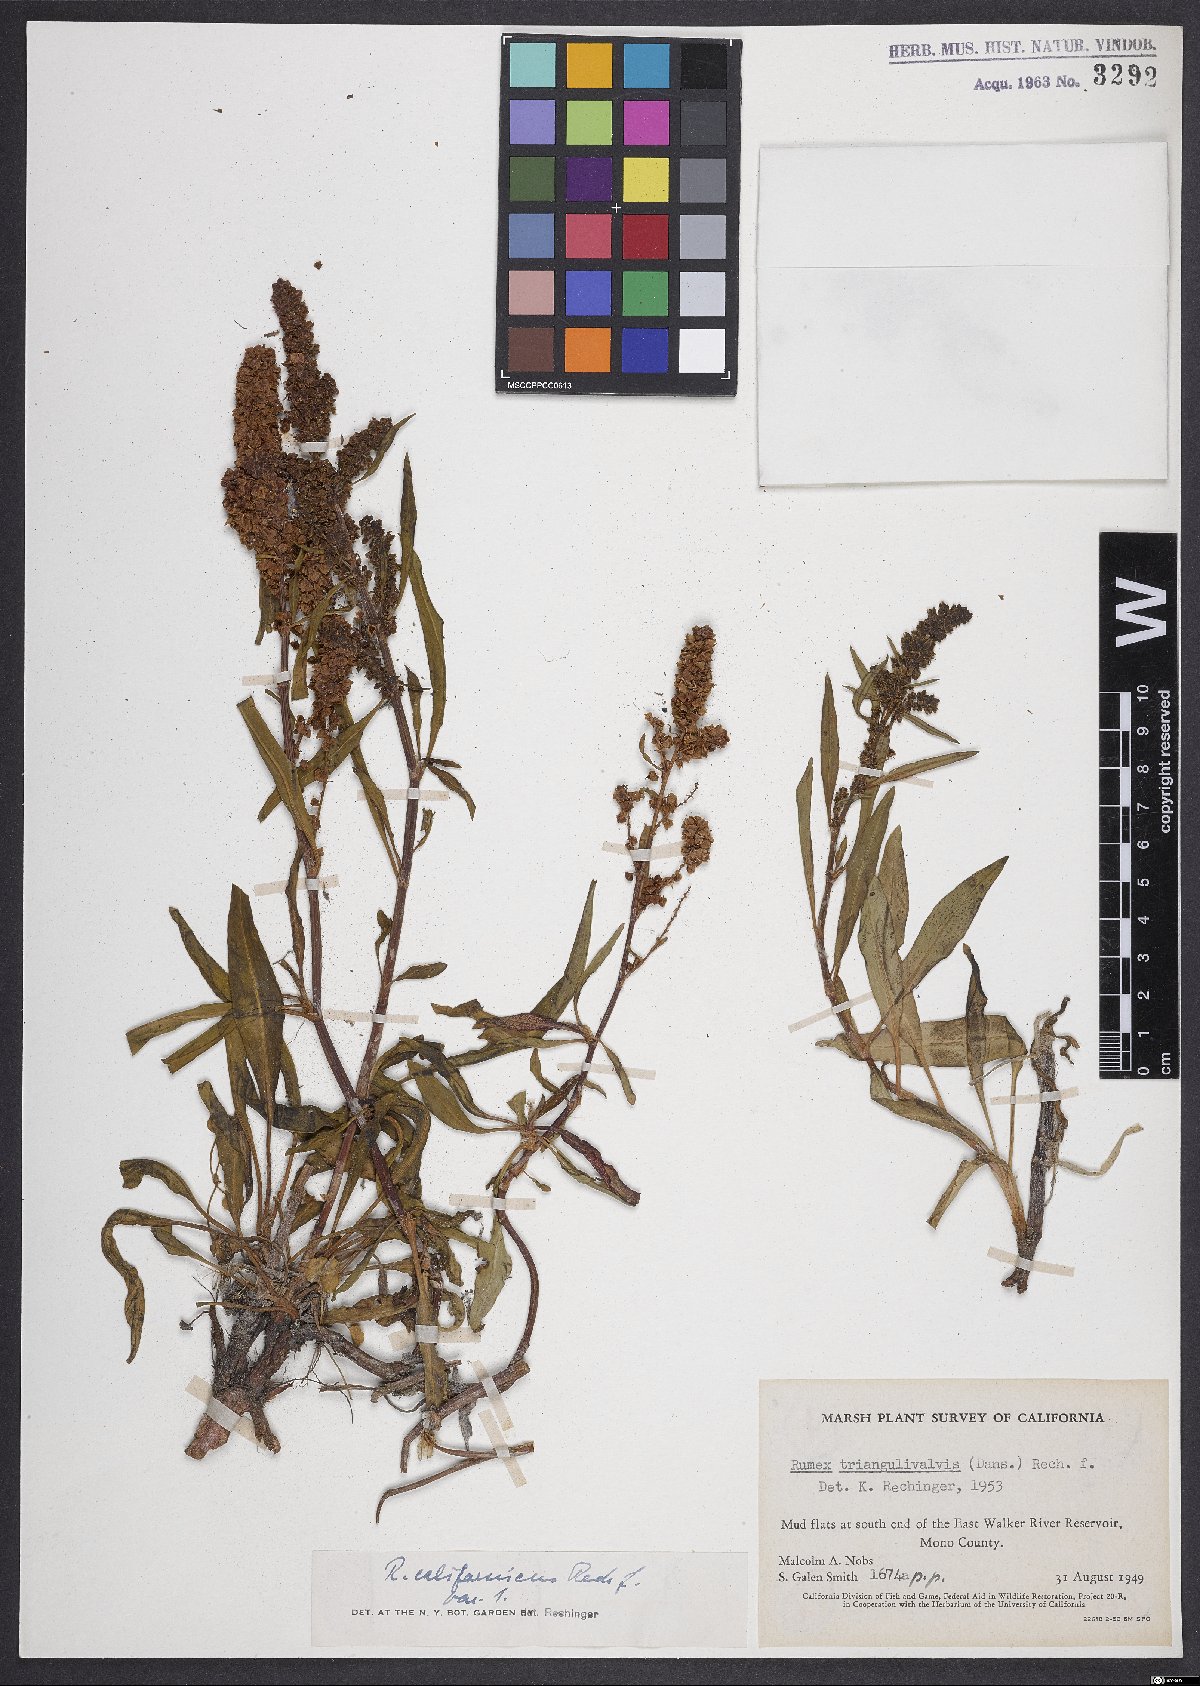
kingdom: Plantae
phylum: Tracheophyta
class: Magnoliopsida
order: Caryophyllales
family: Polygonaceae
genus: Rumex
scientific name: Rumex californicus
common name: California willow dock
